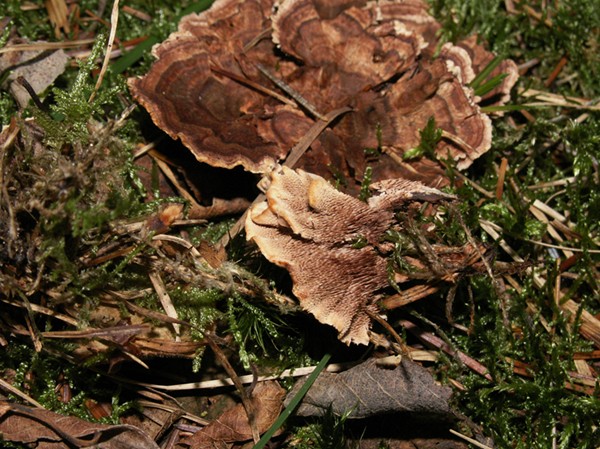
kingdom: Fungi
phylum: Basidiomycota
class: Agaricomycetes
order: Thelephorales
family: Bankeraceae
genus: Hydnellum
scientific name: Hydnellum concrescens
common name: bæltet korkpigsvamp
